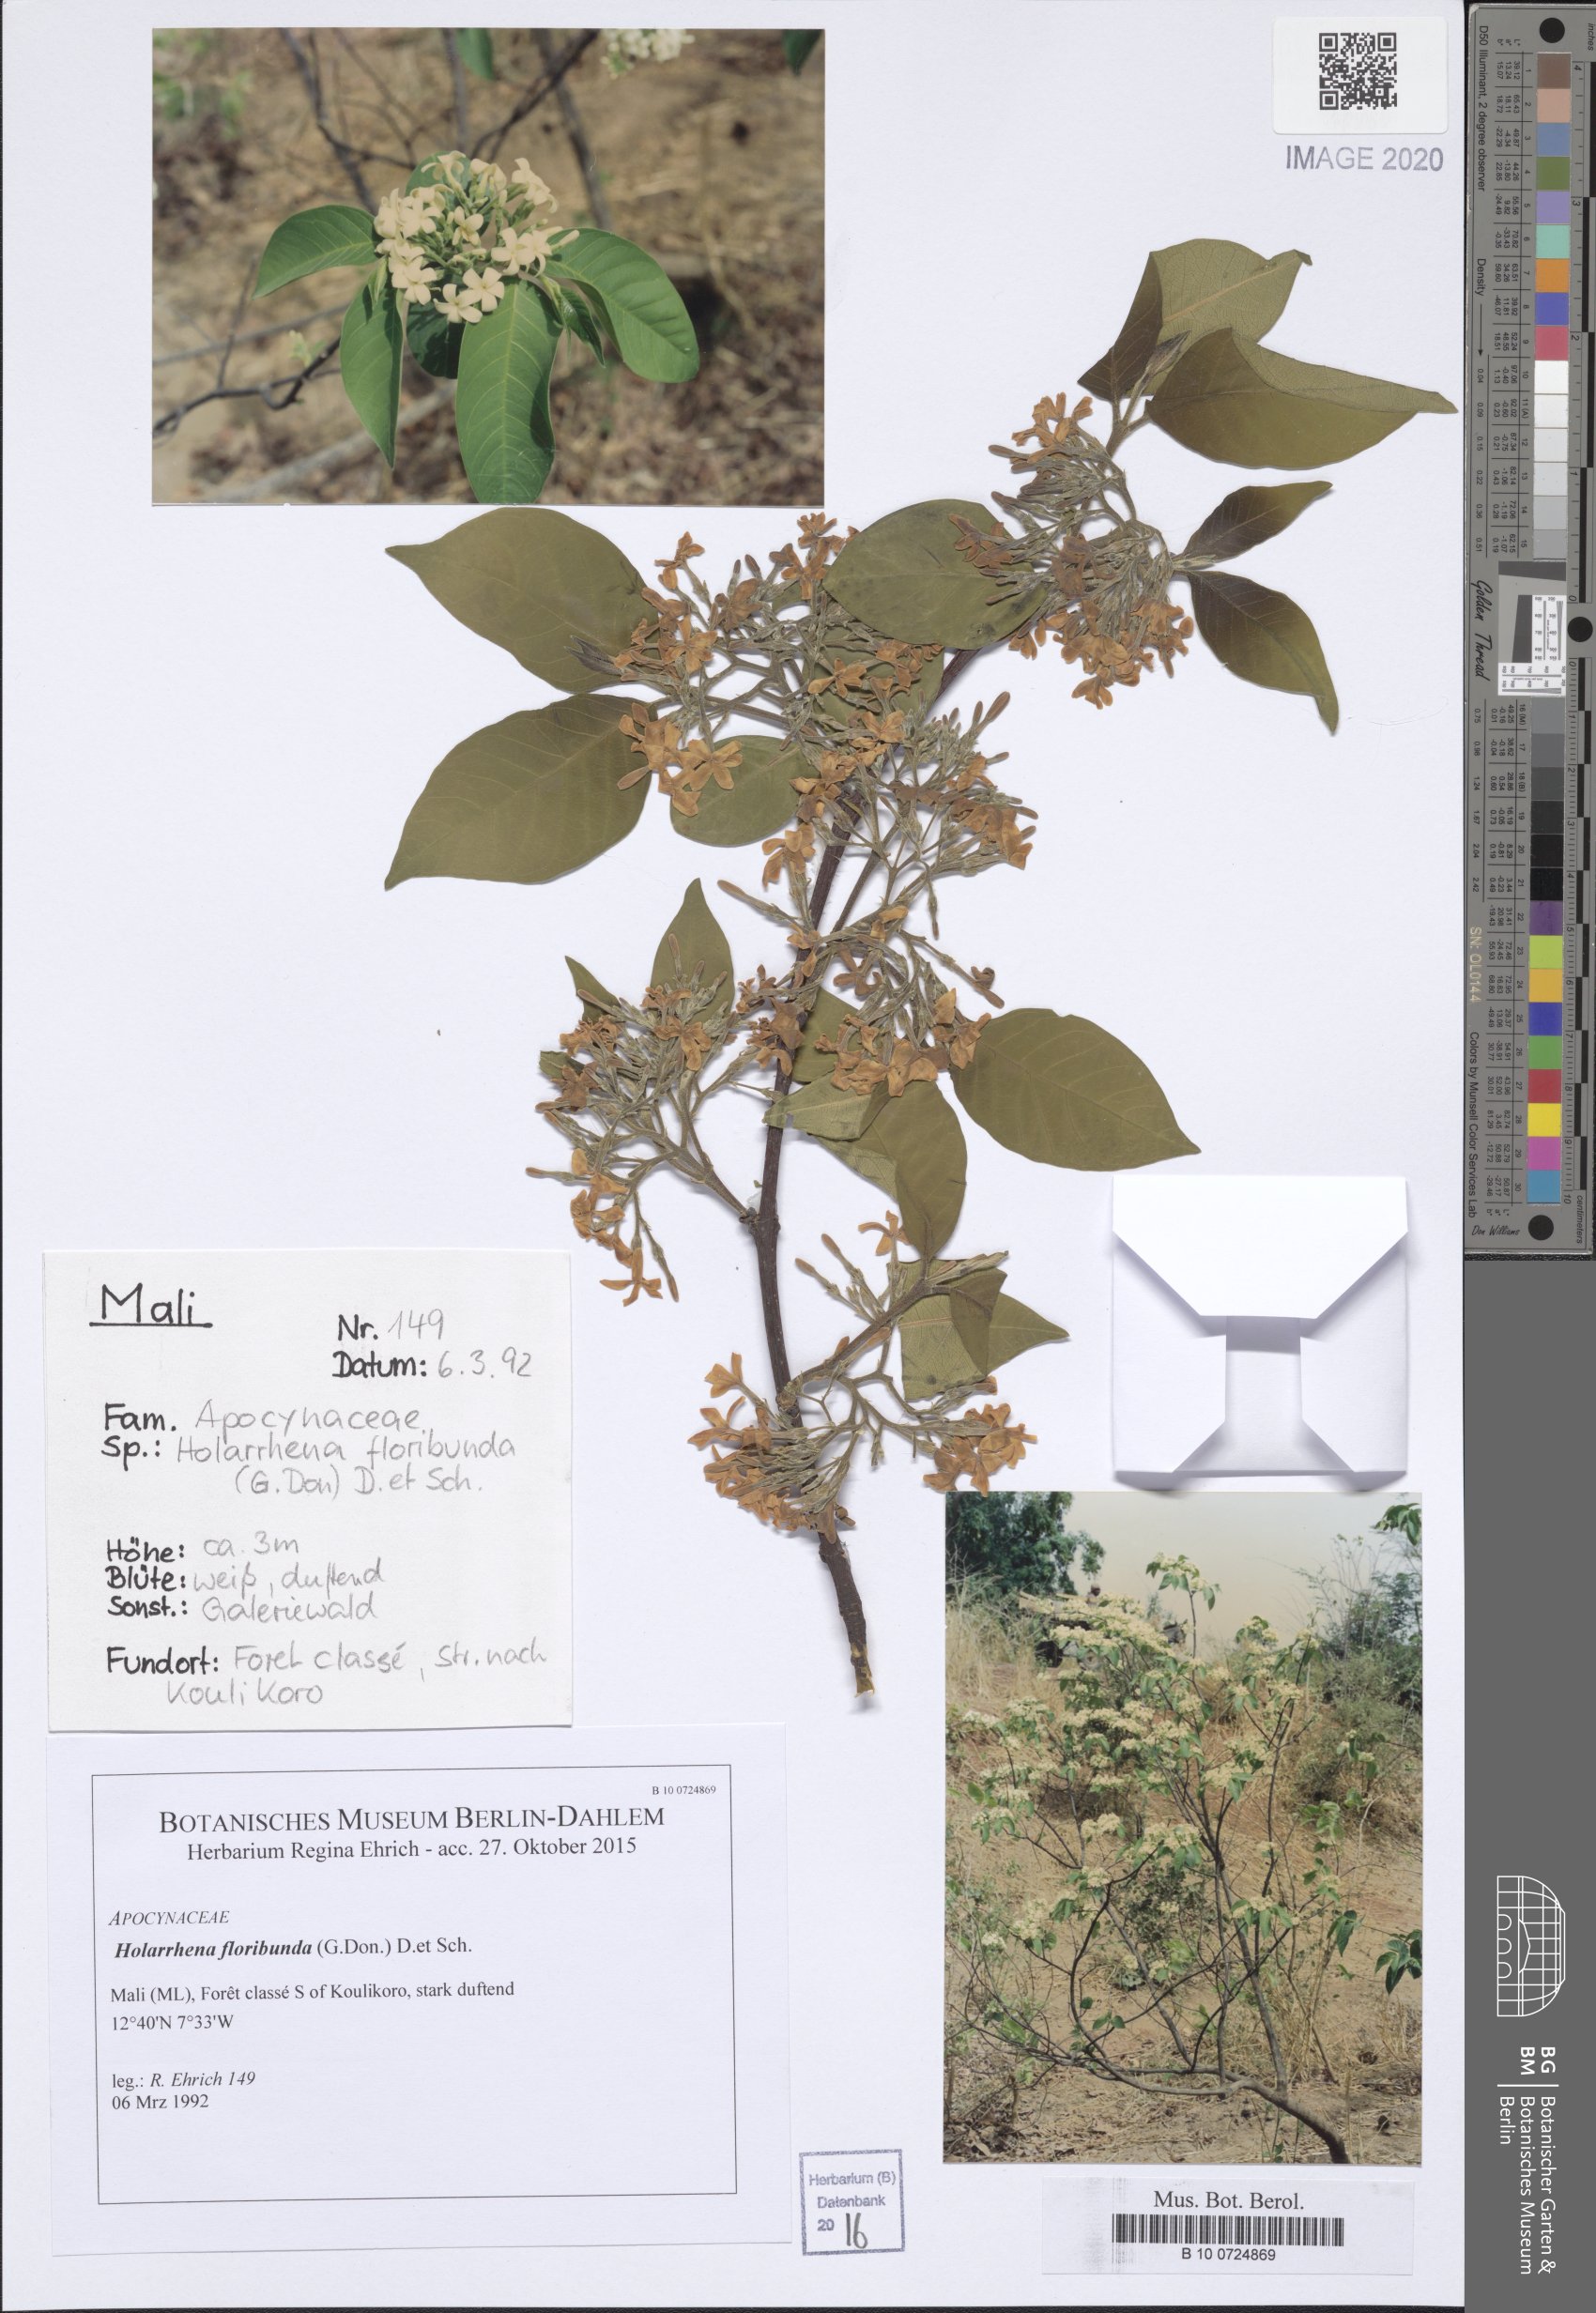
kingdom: Plantae
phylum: Tracheophyta
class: Magnoliopsida
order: Gentianales
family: Apocynaceae
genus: Holarrhena
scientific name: Holarrhena floribunda
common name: Kurchibark
